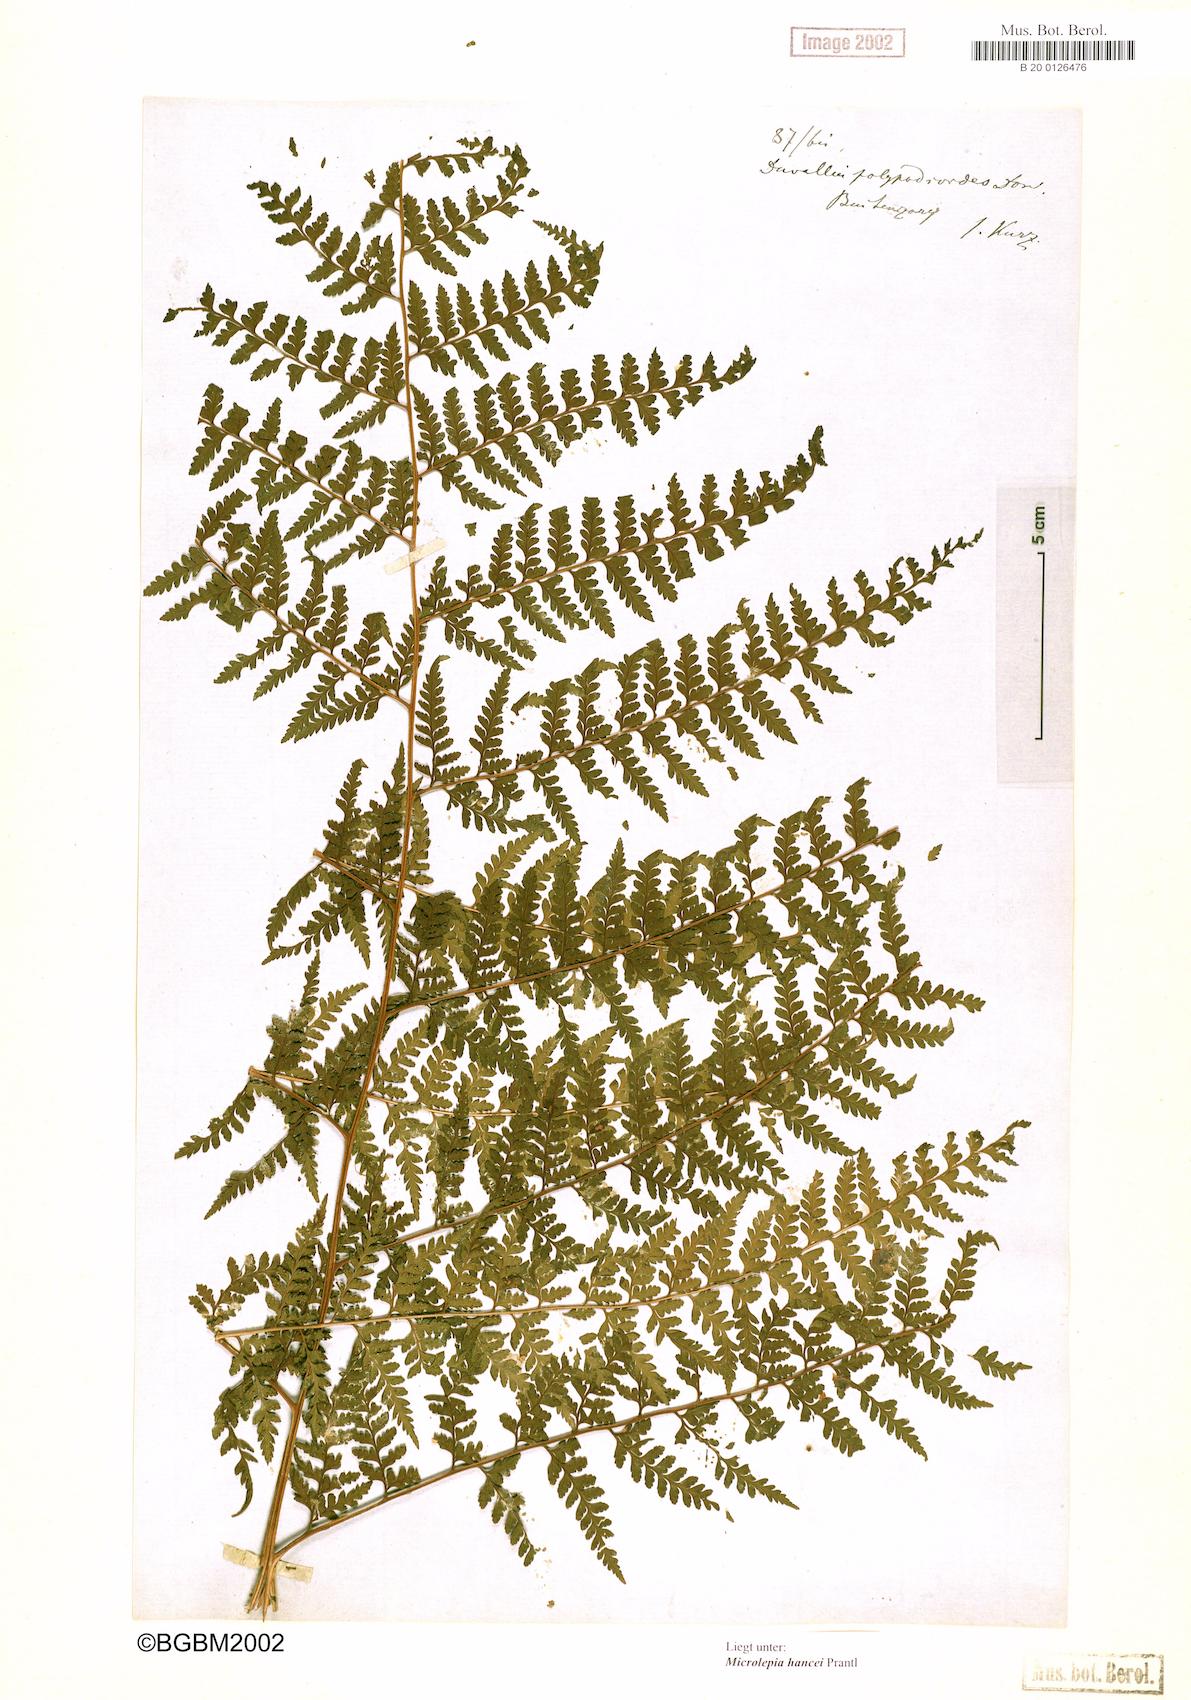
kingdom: Plantae
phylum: Tracheophyta
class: Polypodiopsida
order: Polypodiales
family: Dennstaedtiaceae
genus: Microlepia
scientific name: Microlepia nepalensis
